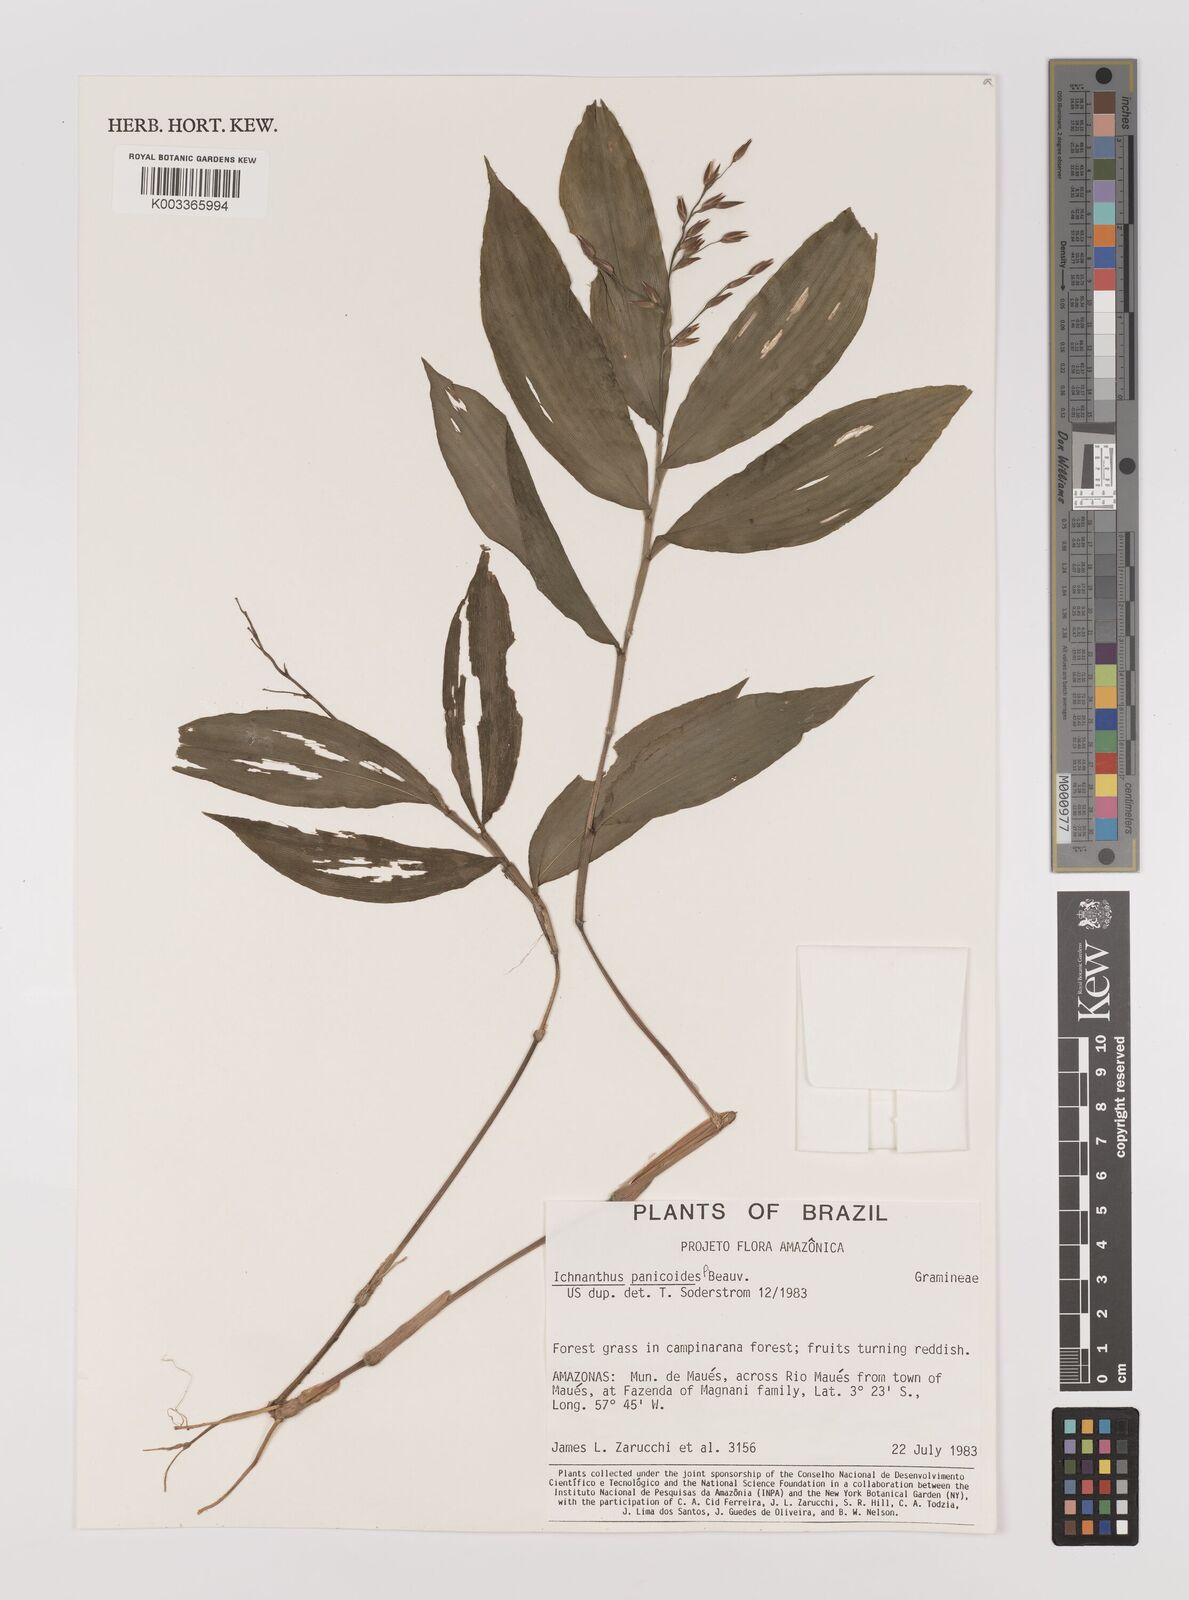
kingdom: Plantae
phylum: Tracheophyta
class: Liliopsida
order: Poales
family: Poaceae
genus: Ichnanthus
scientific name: Ichnanthus panicoides
